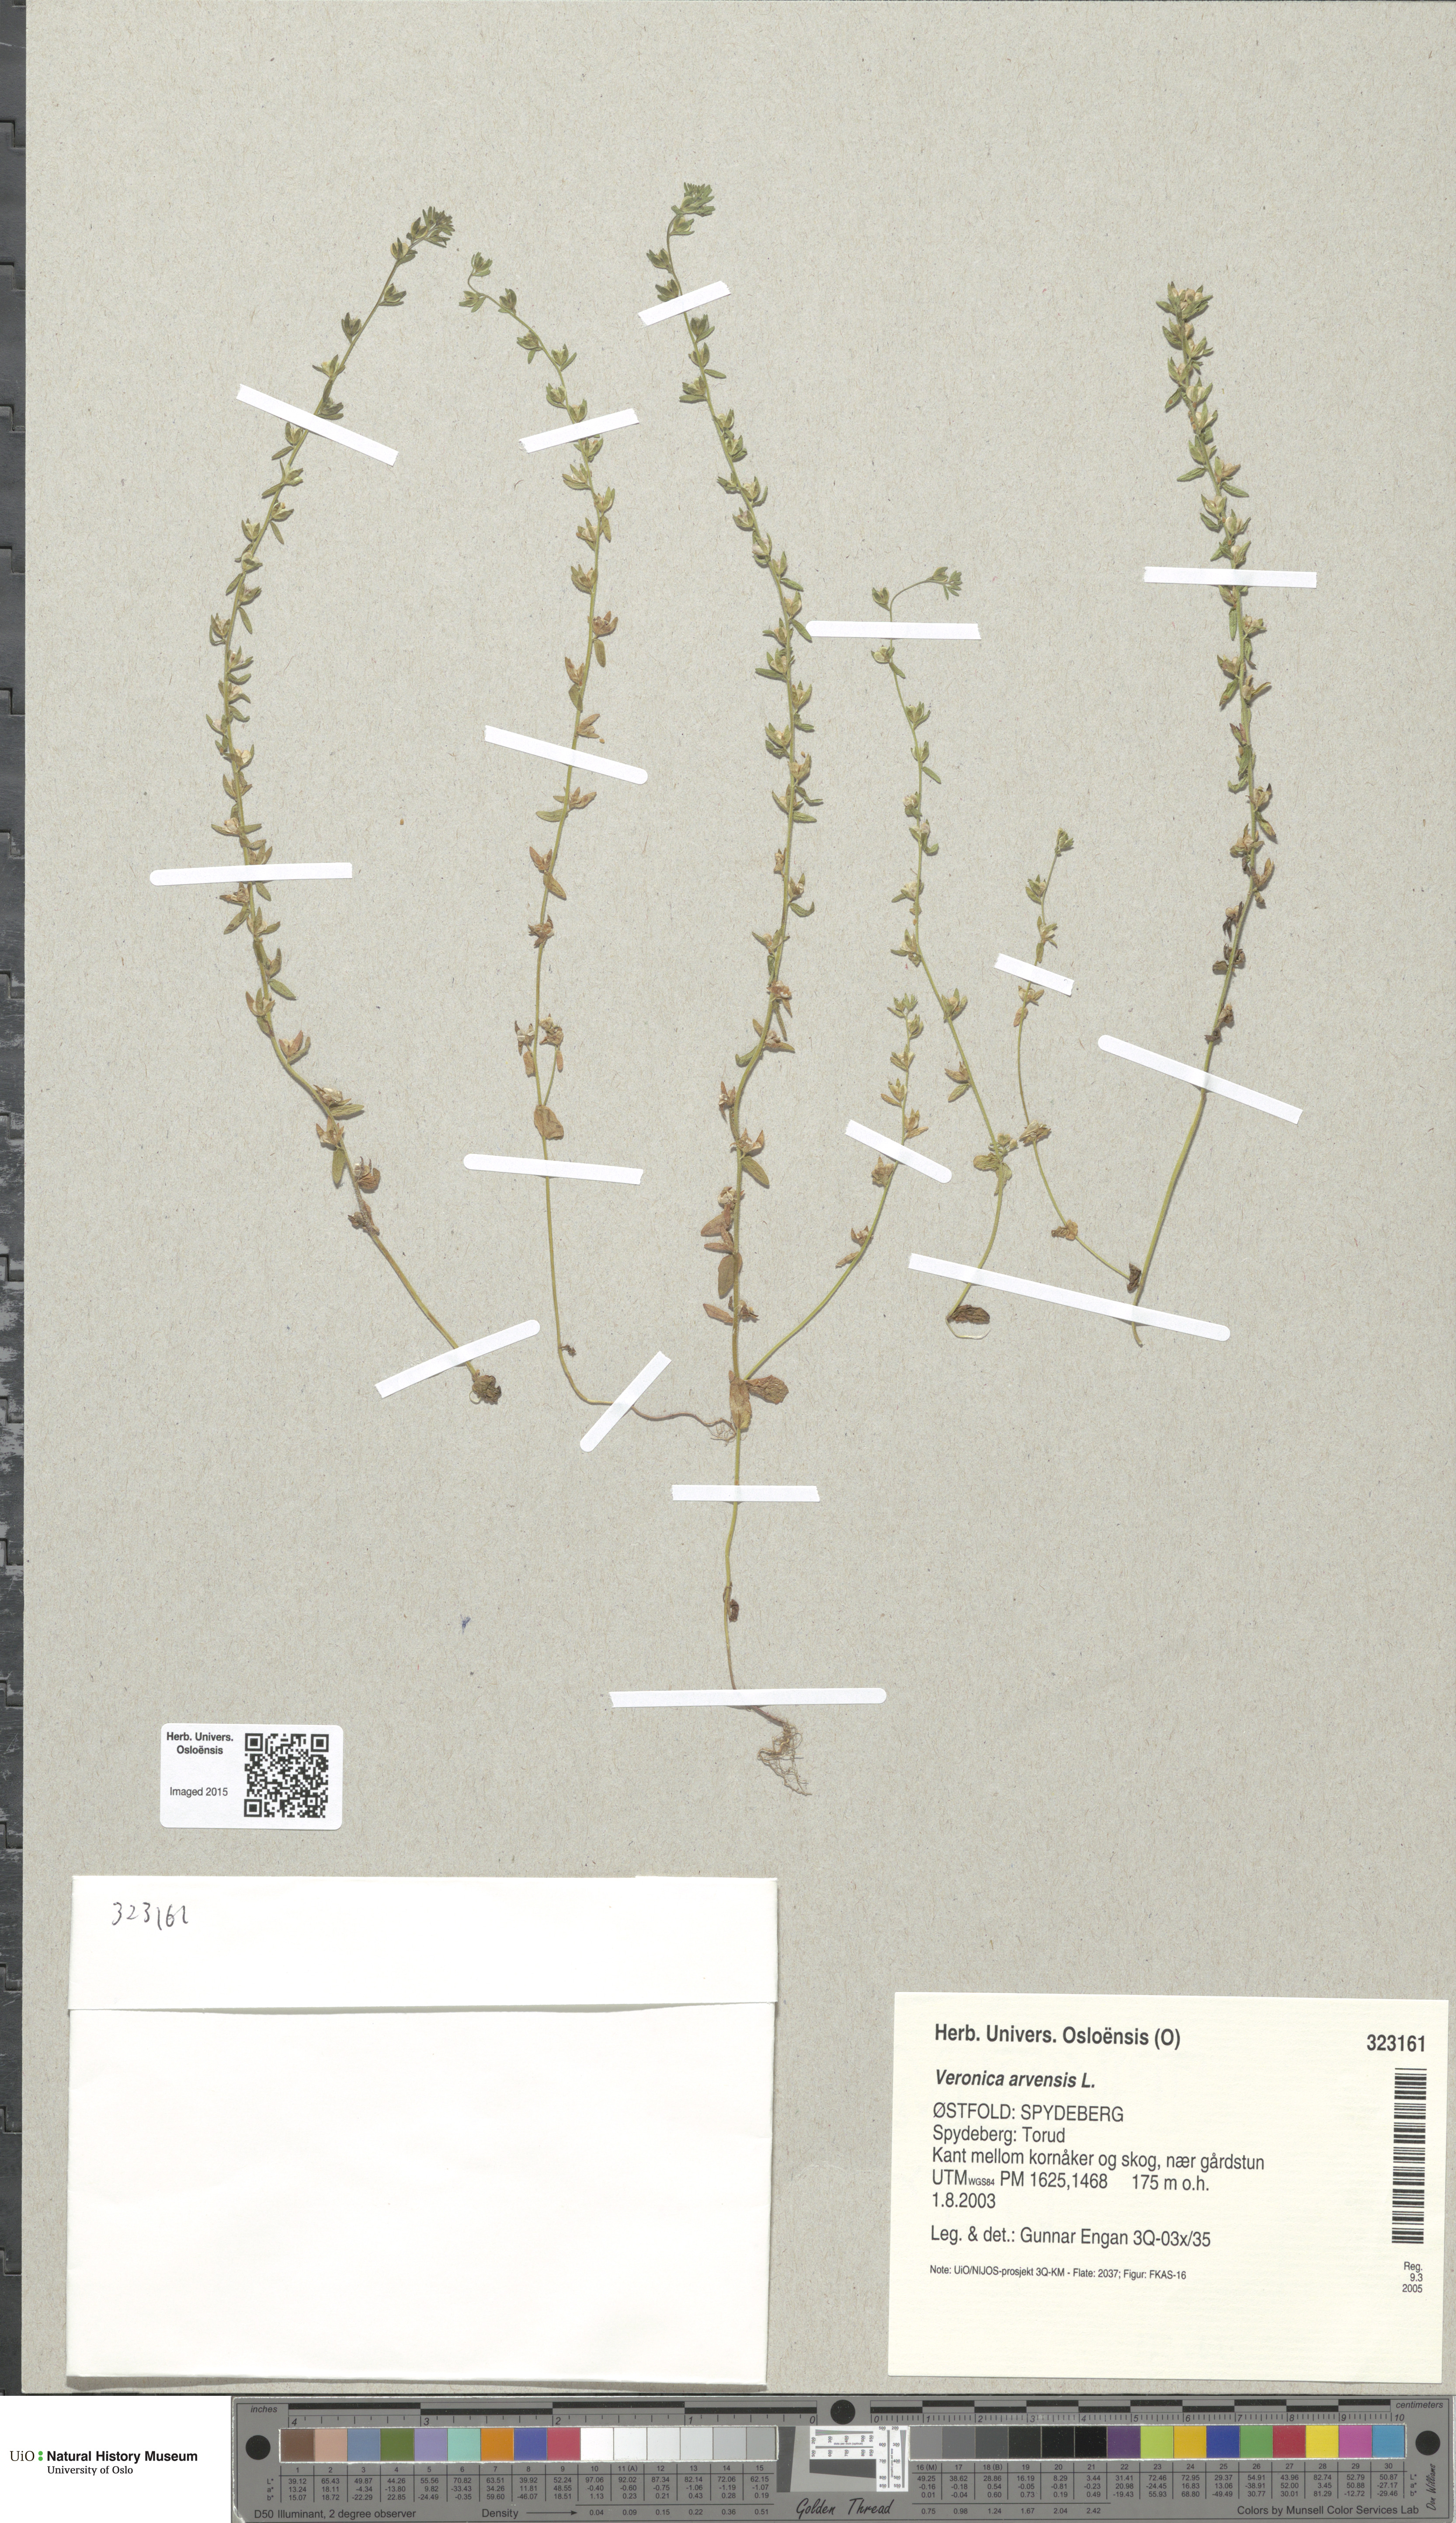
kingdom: Plantae
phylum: Tracheophyta
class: Magnoliopsida
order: Lamiales
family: Plantaginaceae
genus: Veronica
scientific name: Veronica arvensis
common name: Corn speedwell
